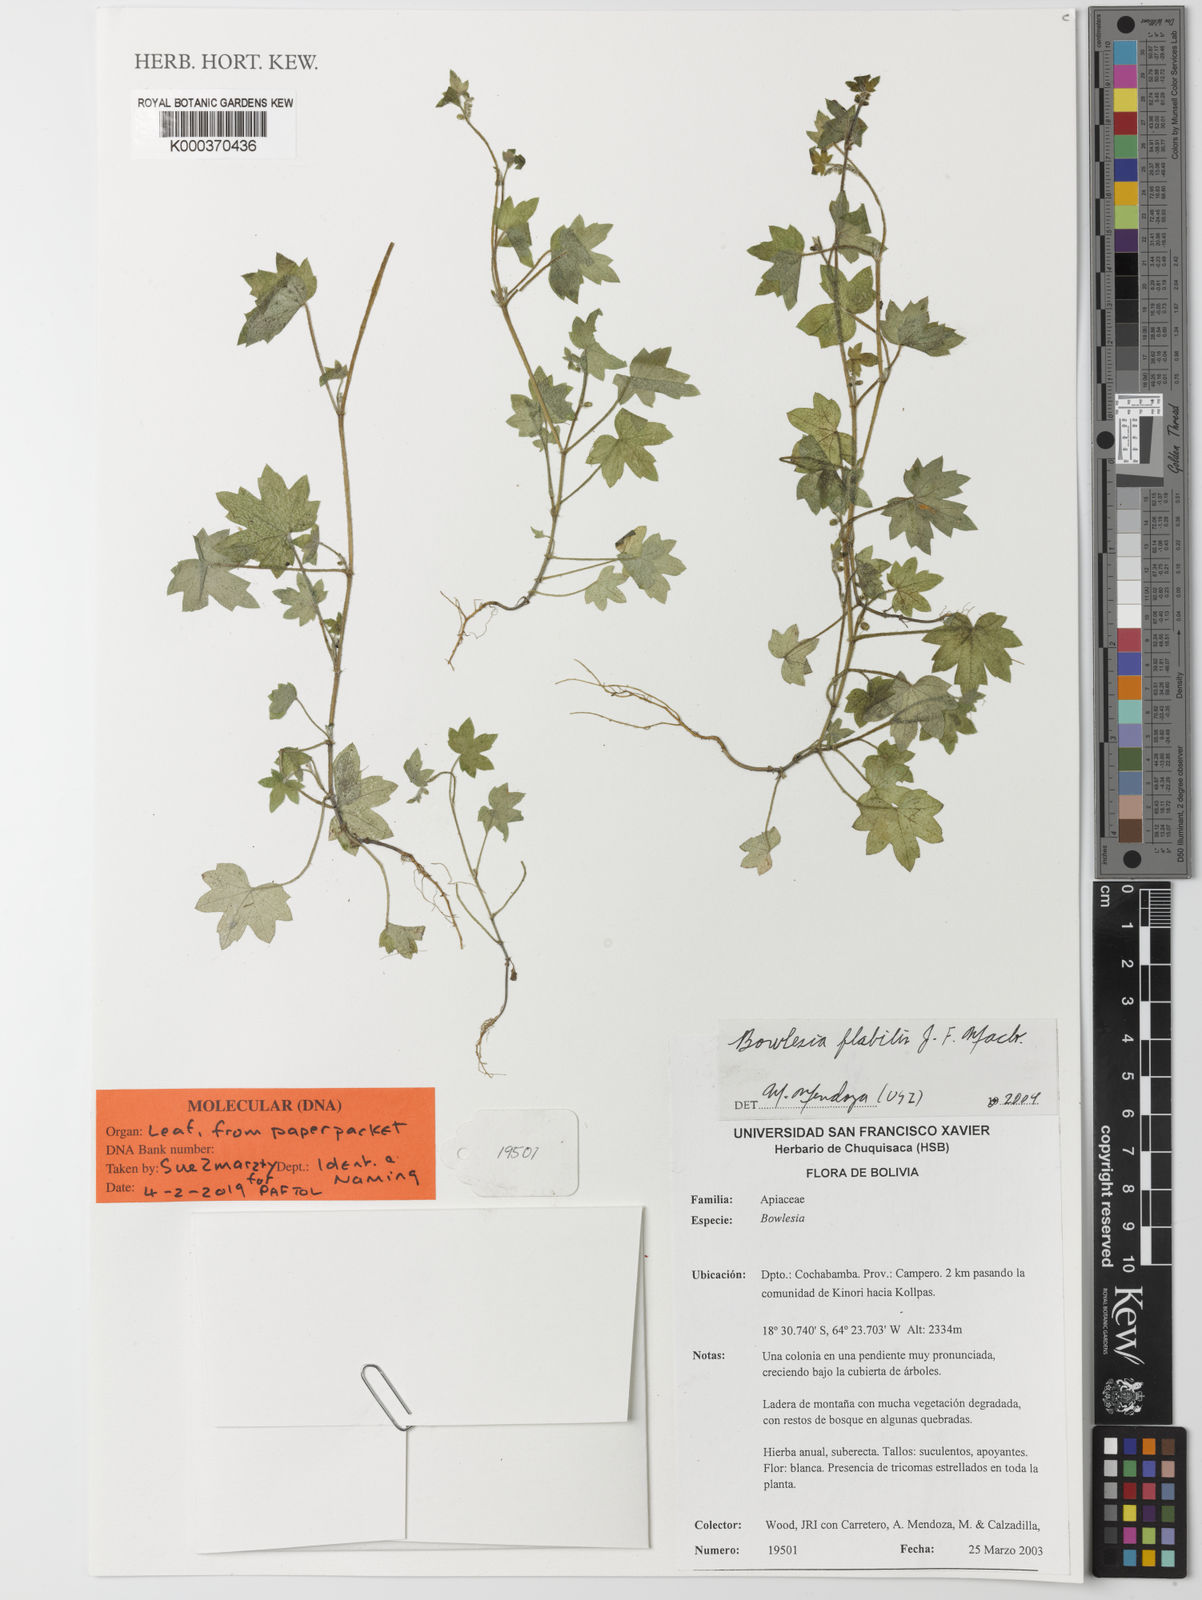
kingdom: Plantae
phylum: Tracheophyta
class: Magnoliopsida
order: Apiales
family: Apiaceae
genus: Bowlesia
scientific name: Bowlesia flabilis
